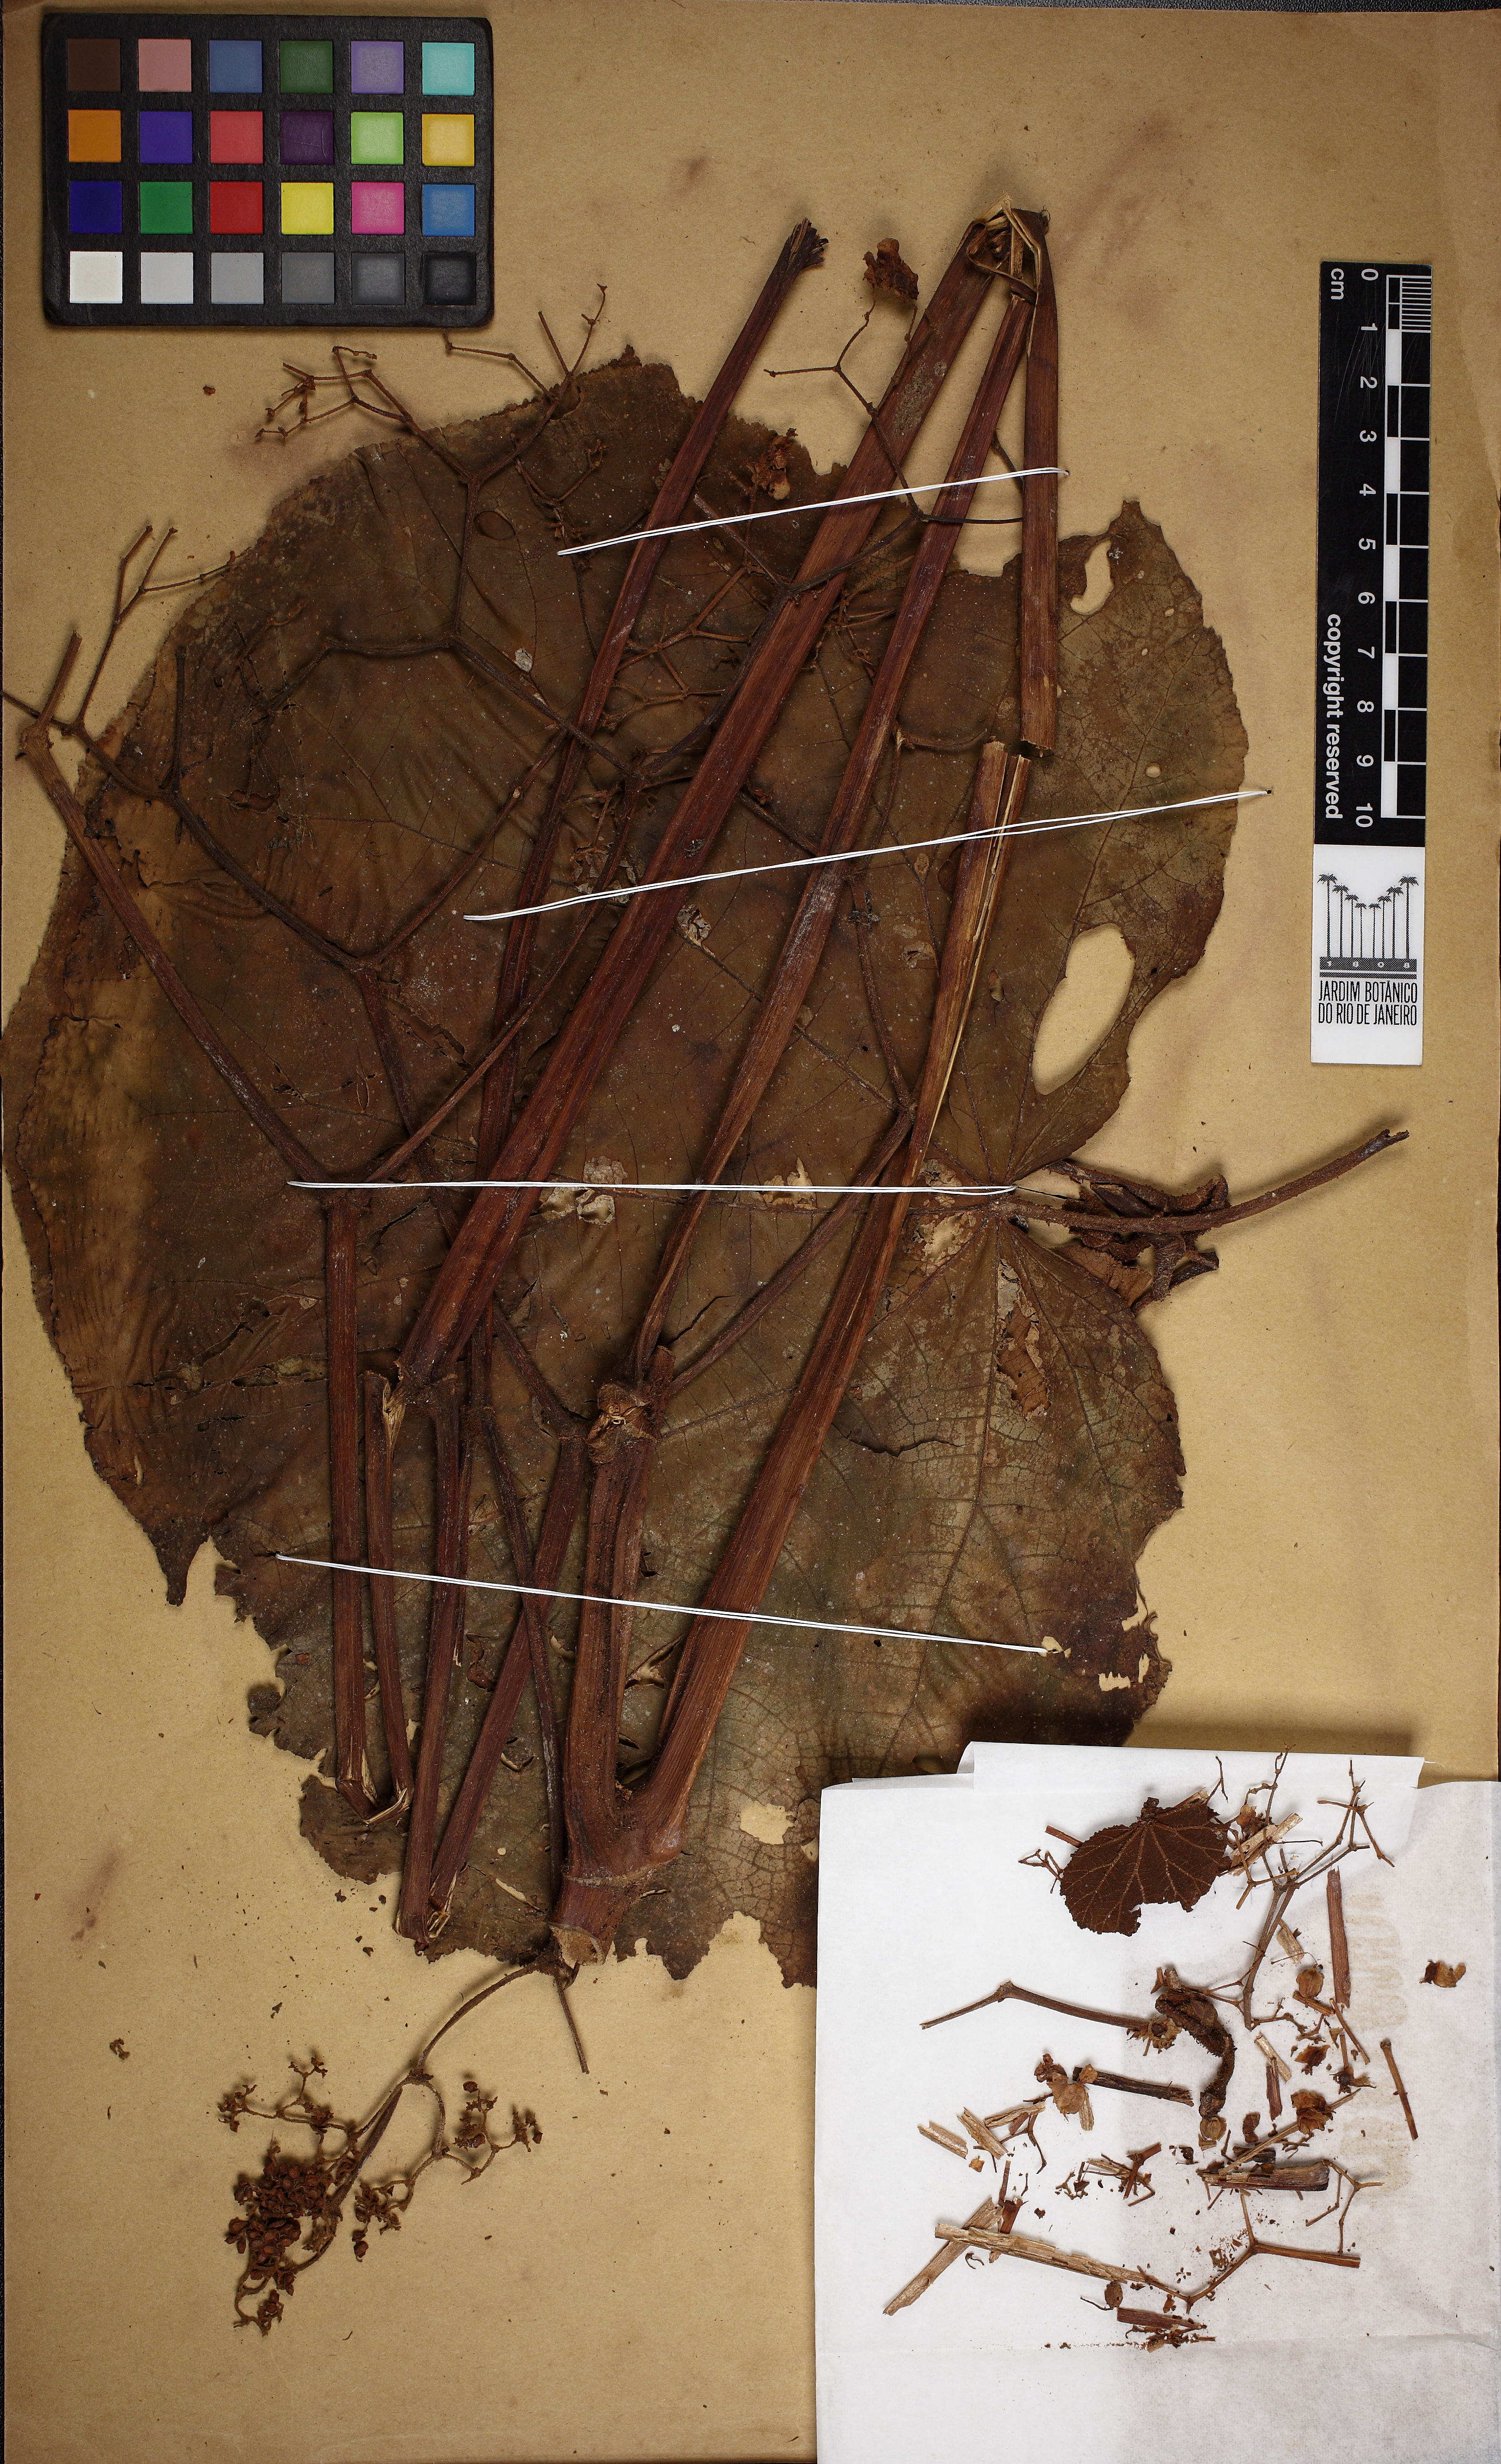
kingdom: Plantae
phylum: Tracheophyta
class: Magnoliopsida
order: Cucurbitales
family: Begoniaceae
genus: Begonia
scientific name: Begonia huegelii
